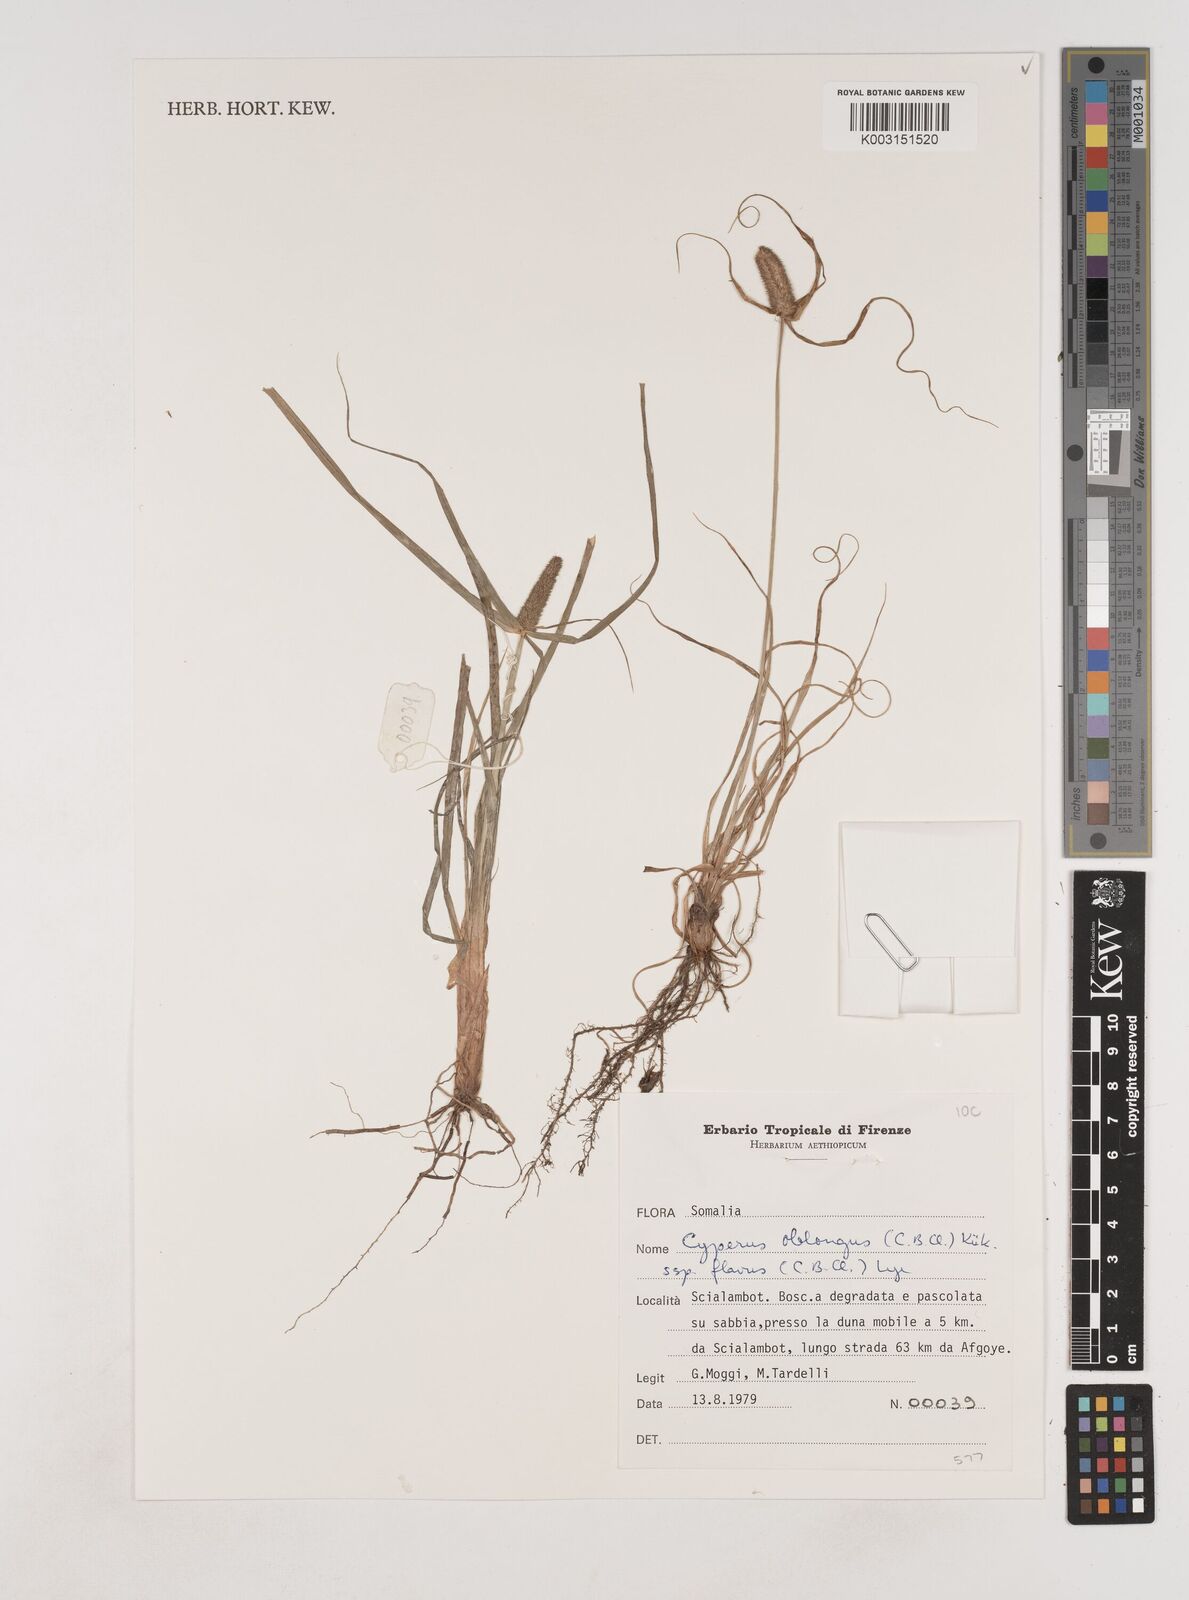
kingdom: Plantae
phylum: Tracheophyta
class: Liliopsida
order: Poales
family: Cyperaceae
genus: Cyperus
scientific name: Cyperus nyikanus
